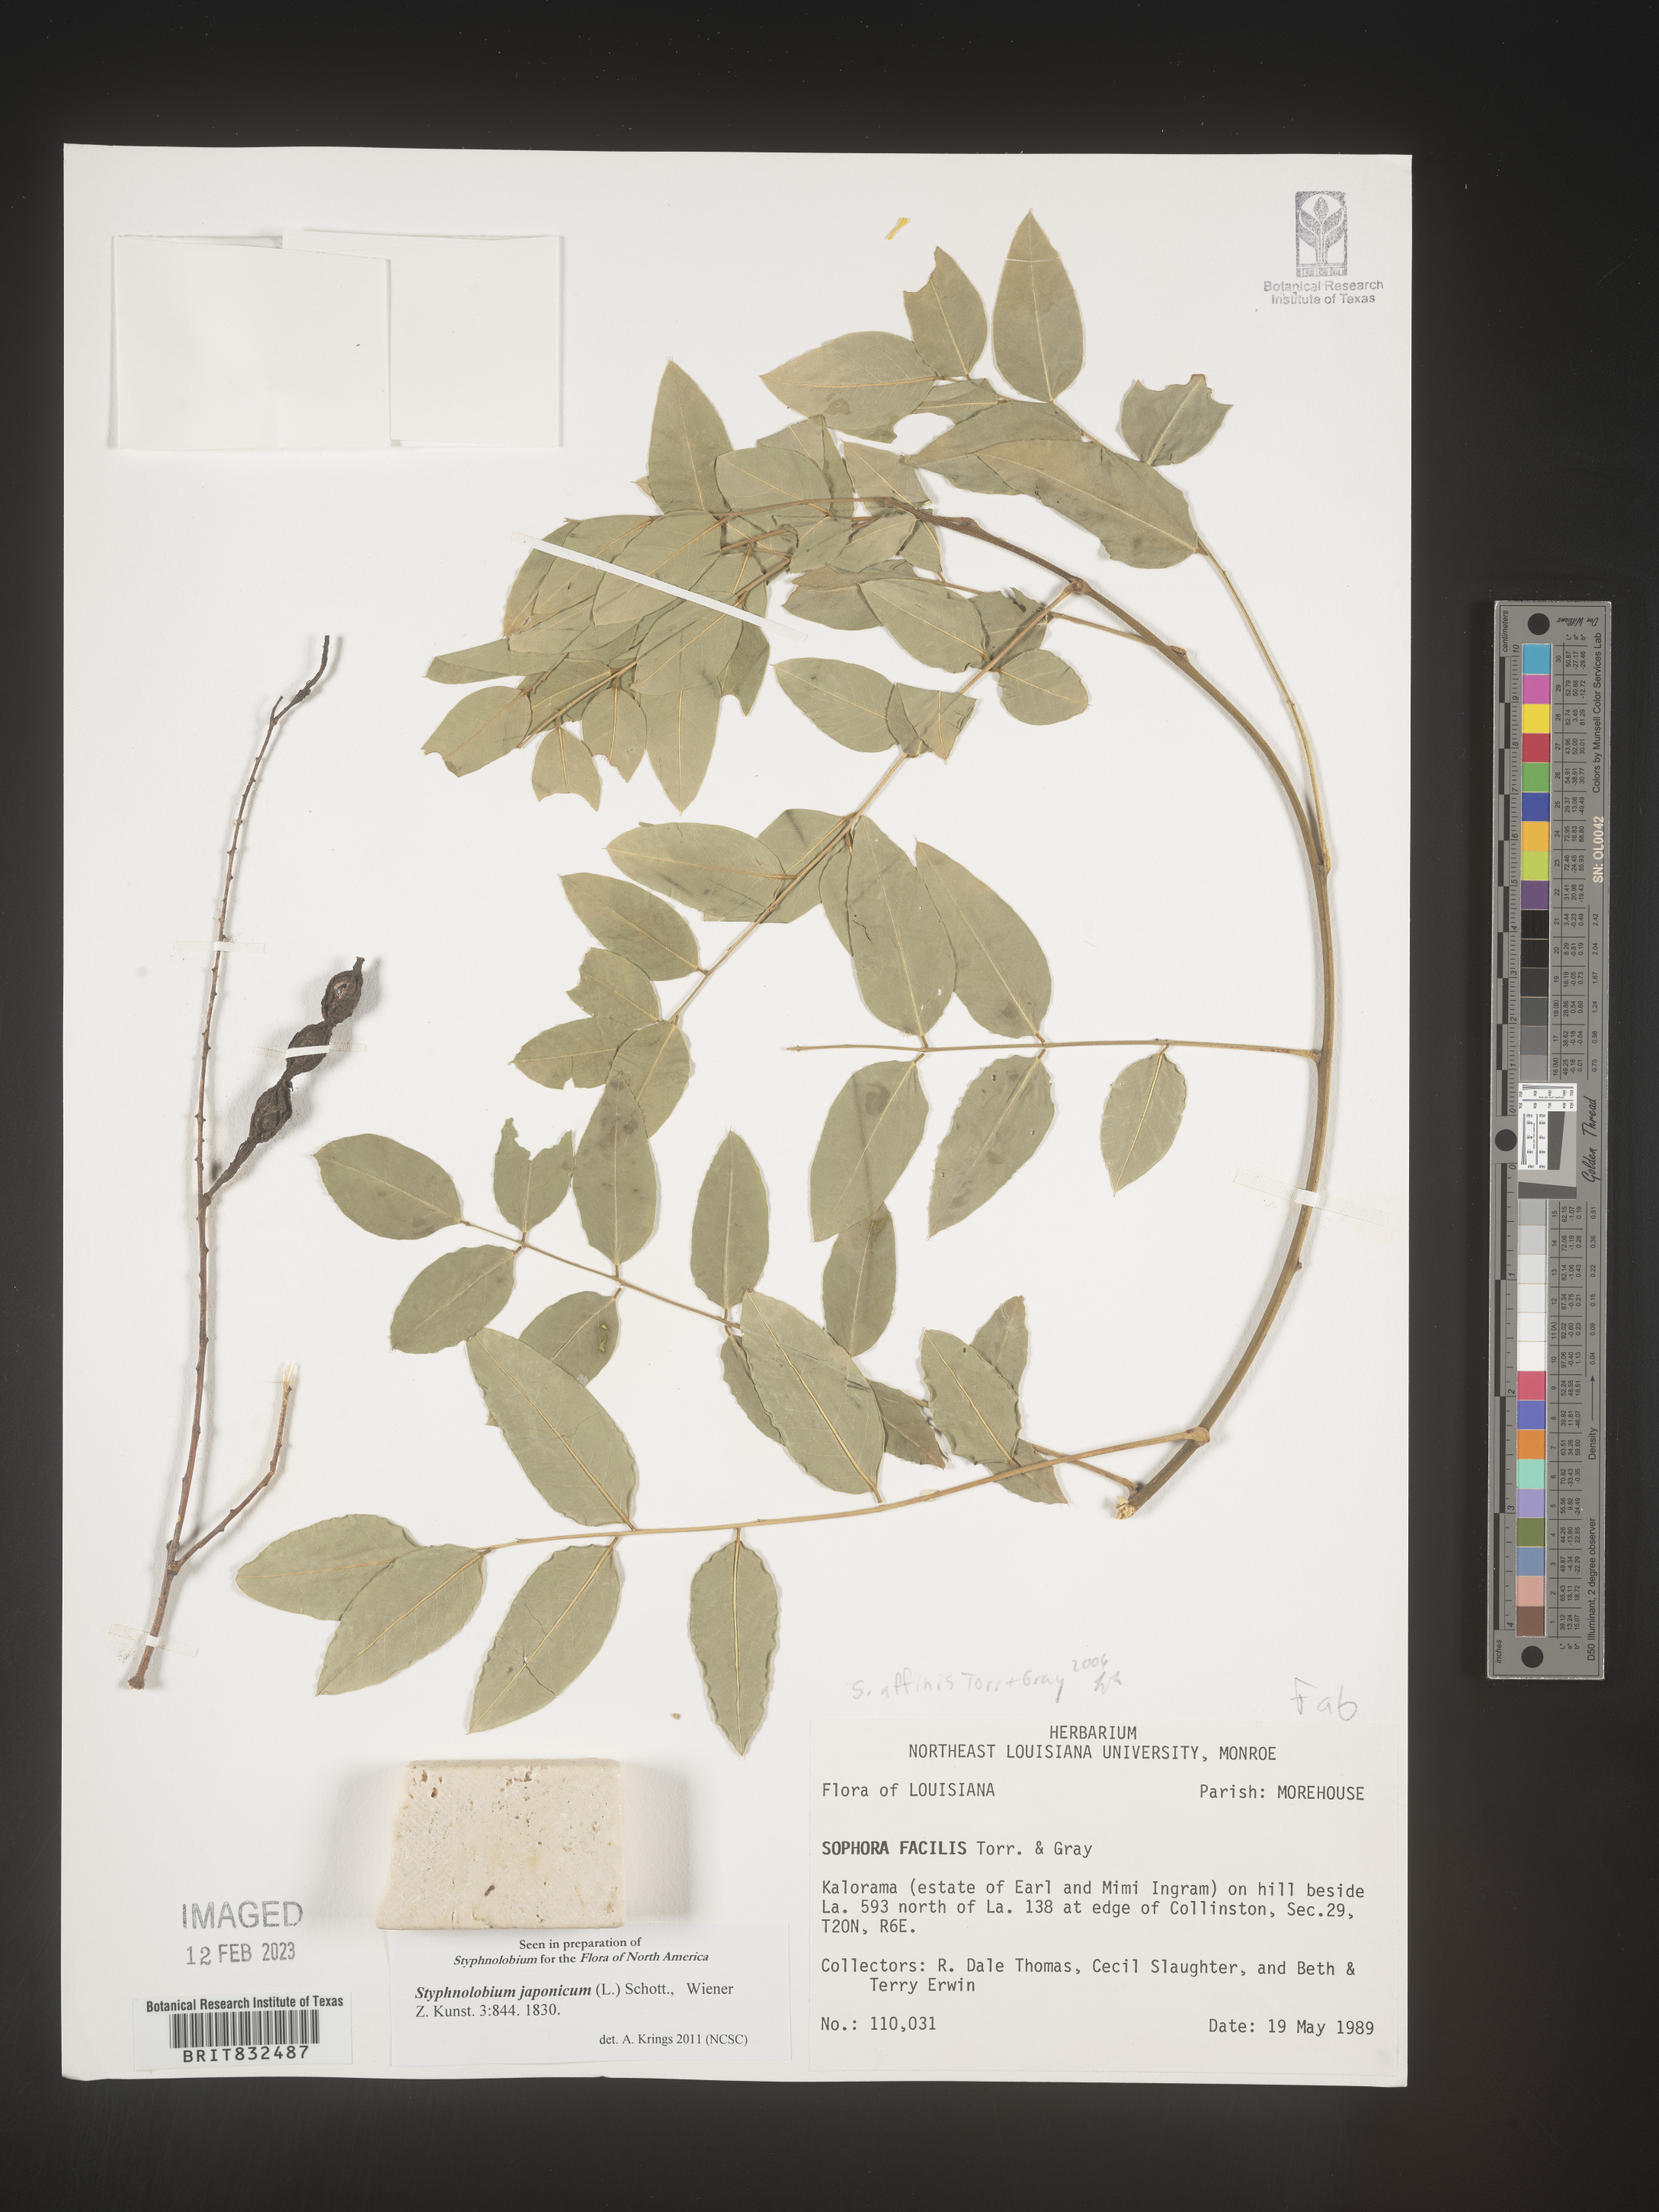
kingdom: Plantae
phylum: Tracheophyta
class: Magnoliopsida
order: Fabales
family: Fabaceae
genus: Styphnolobium
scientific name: Styphnolobium
